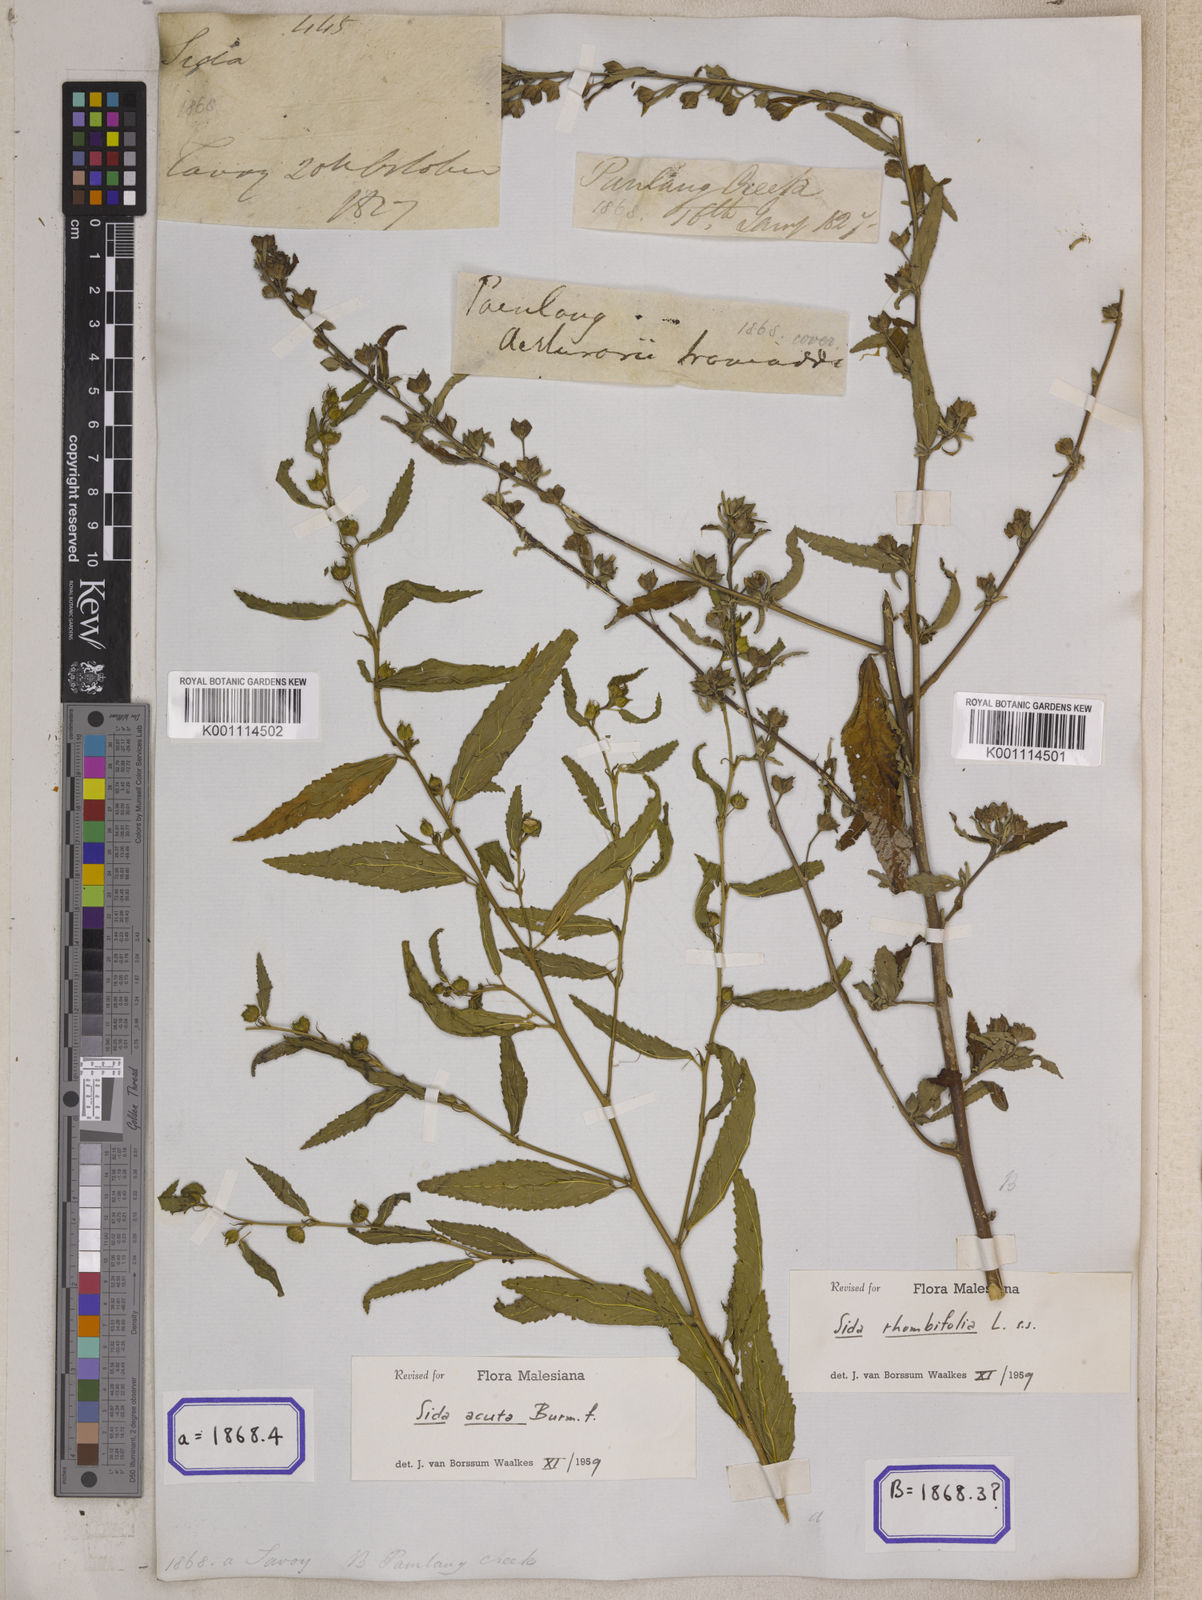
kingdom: Plantae
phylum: Tracheophyta
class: Magnoliopsida
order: Malvales
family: Malvaceae
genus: Sida
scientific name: Sida acuta
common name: Common wireweed
